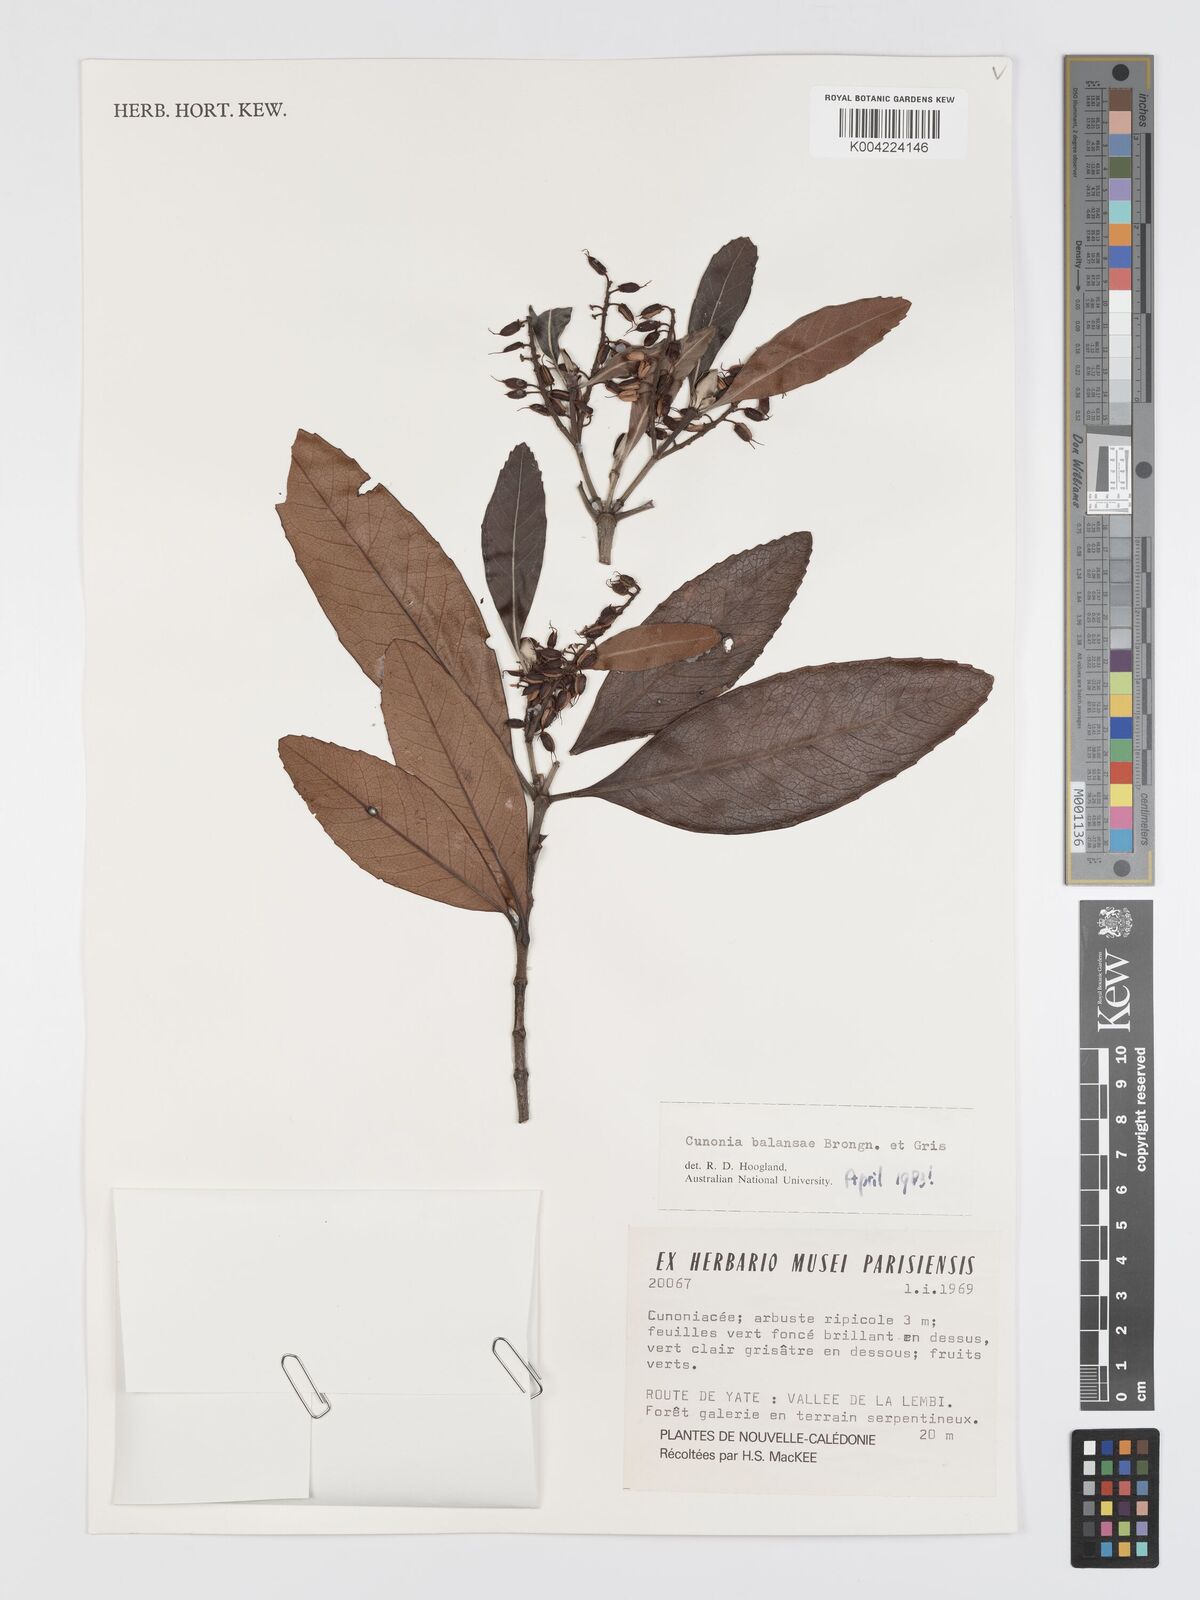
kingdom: Plantae
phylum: Tracheophyta
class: Magnoliopsida
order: Oxalidales
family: Cunoniaceae
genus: Cunonia
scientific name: Cunonia balansae
